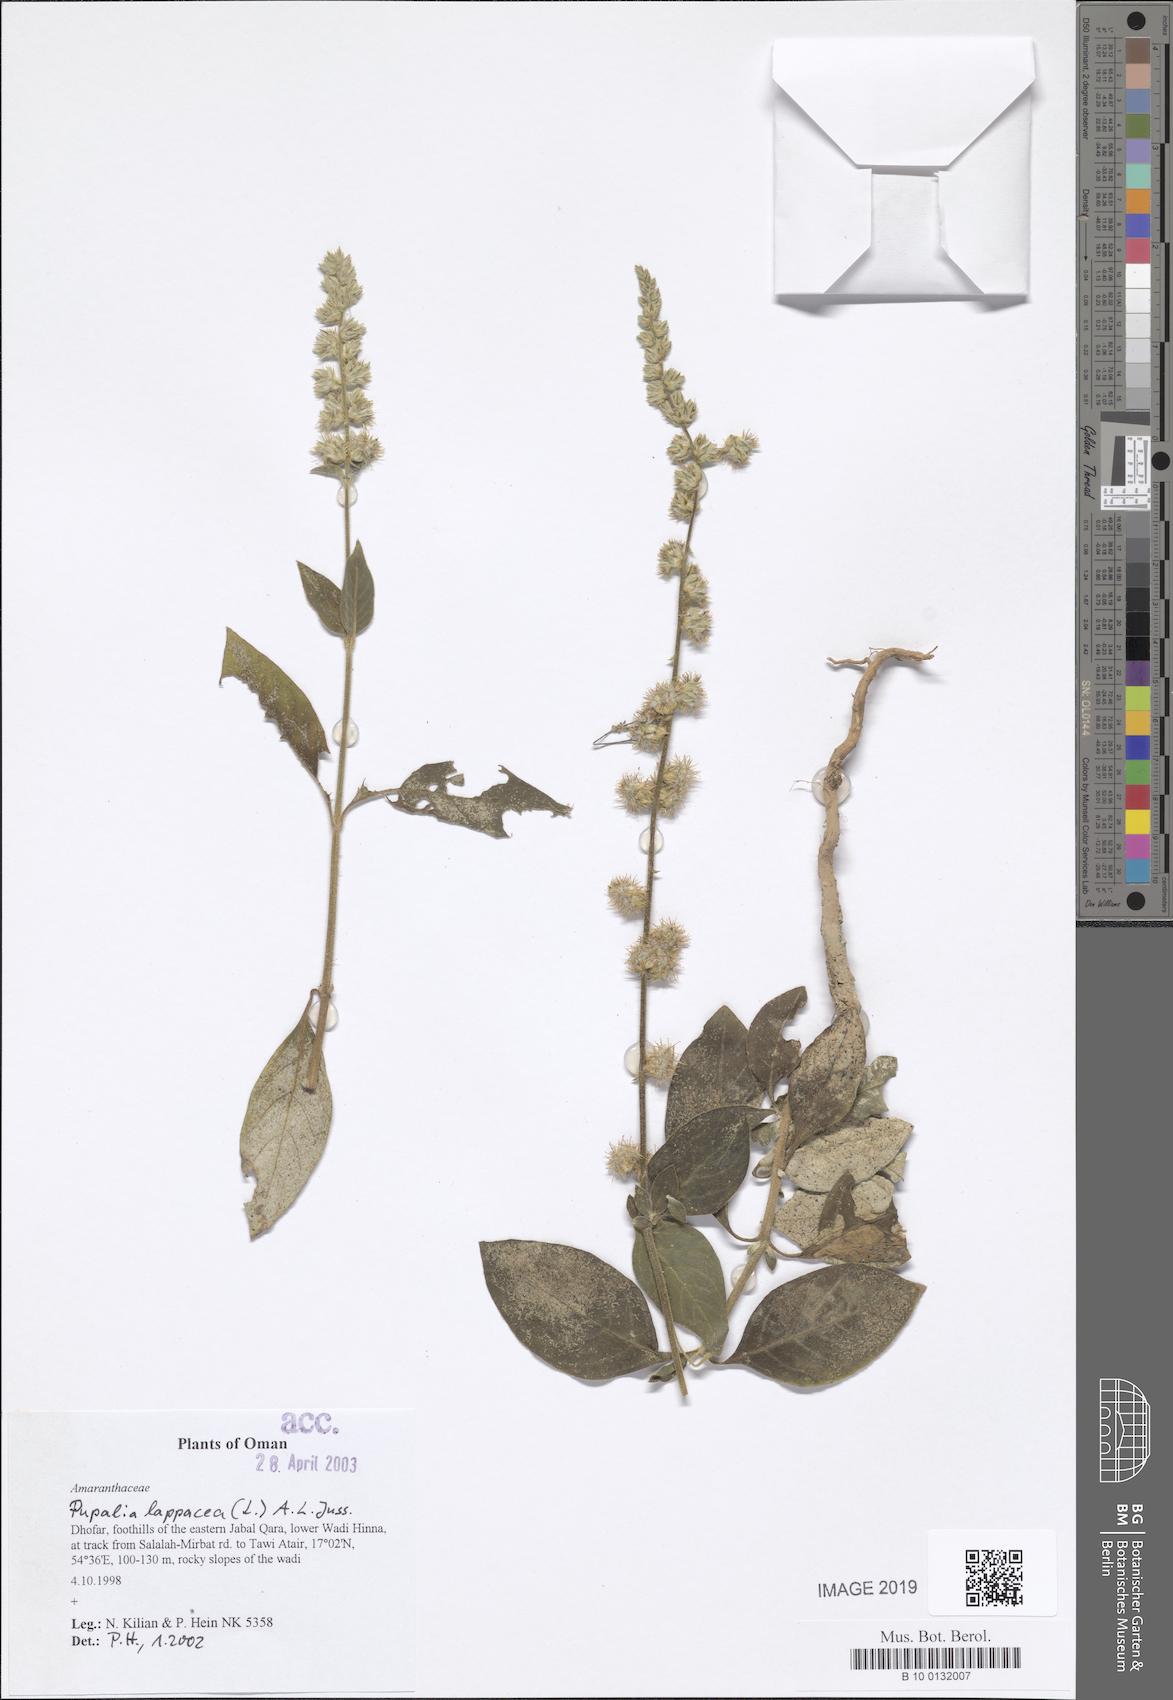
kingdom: Plantae
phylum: Tracheophyta
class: Magnoliopsida
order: Caryophyllales
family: Amaranthaceae
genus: Pupalia
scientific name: Pupalia lappacea
